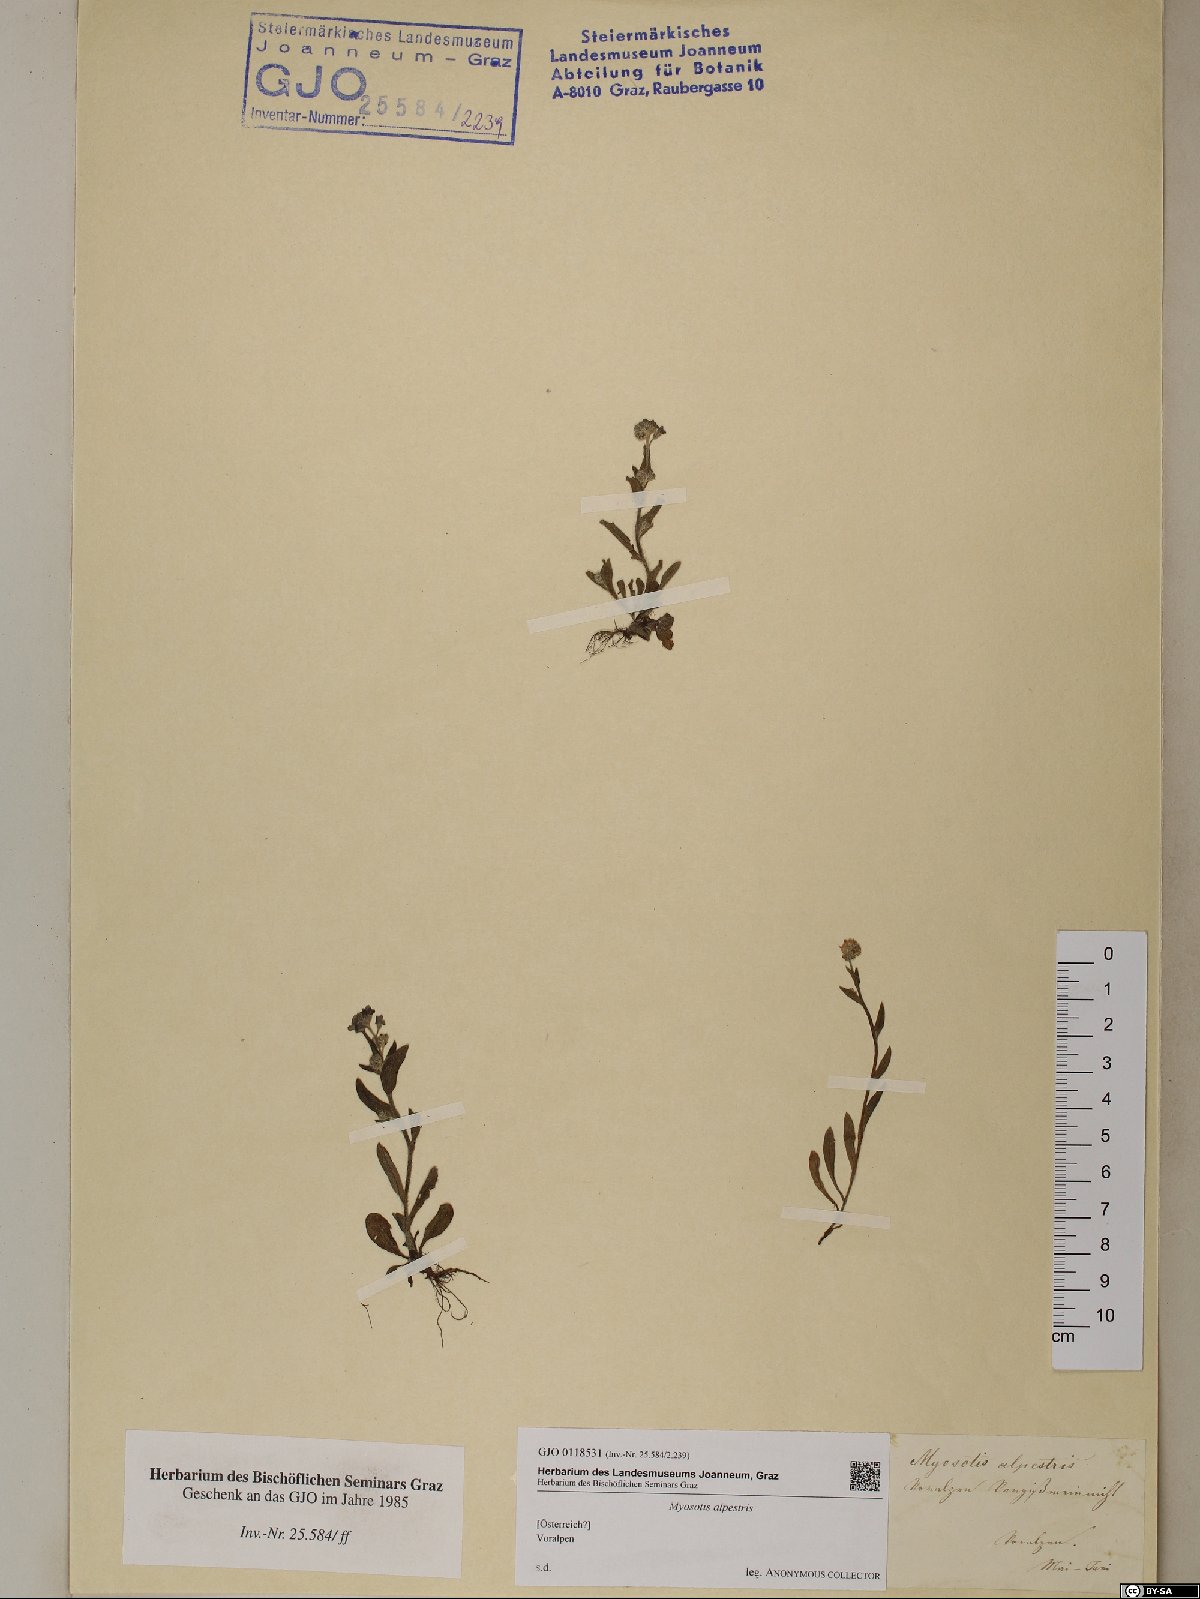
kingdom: Plantae
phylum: Tracheophyta
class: Magnoliopsida
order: Boraginales
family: Boraginaceae
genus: Myosotis
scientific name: Myosotis alpestris
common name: Alpine forget-me-not
